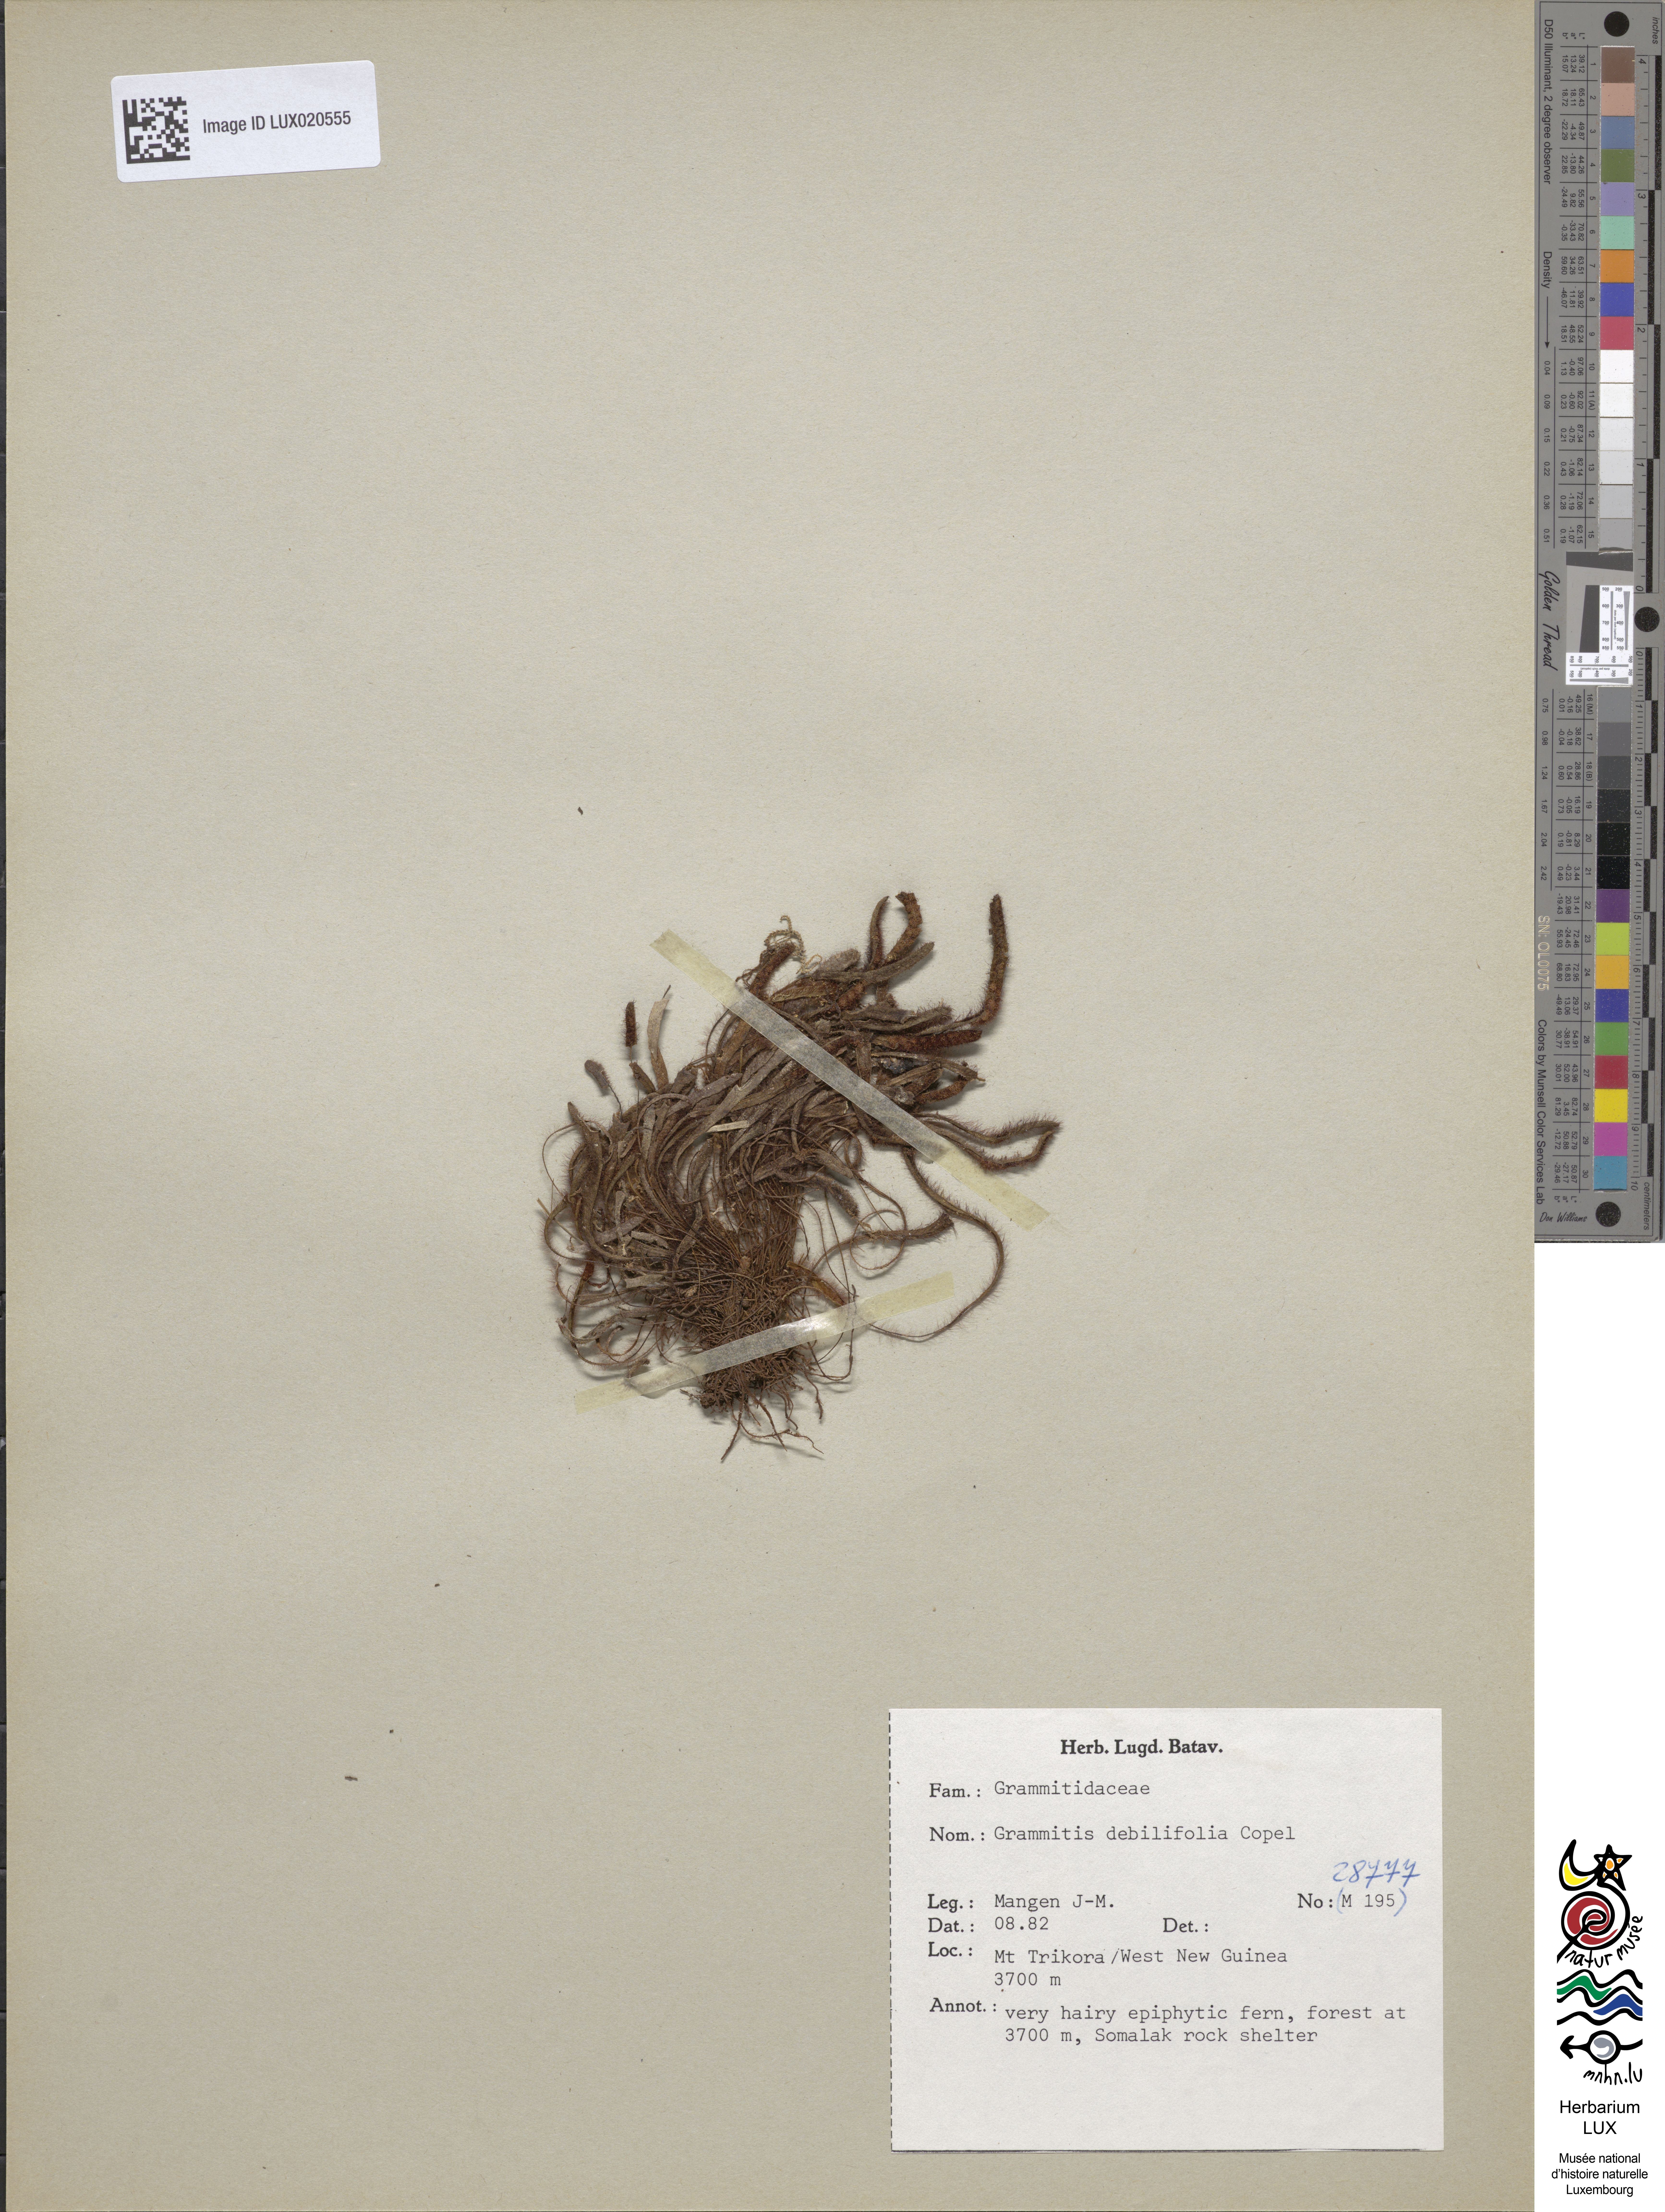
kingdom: Plantae
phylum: Tracheophyta
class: Polypodiopsida
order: Polypodiales
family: Polypodiaceae
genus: Oreogrammitis
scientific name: Oreogrammitis debilifolia
